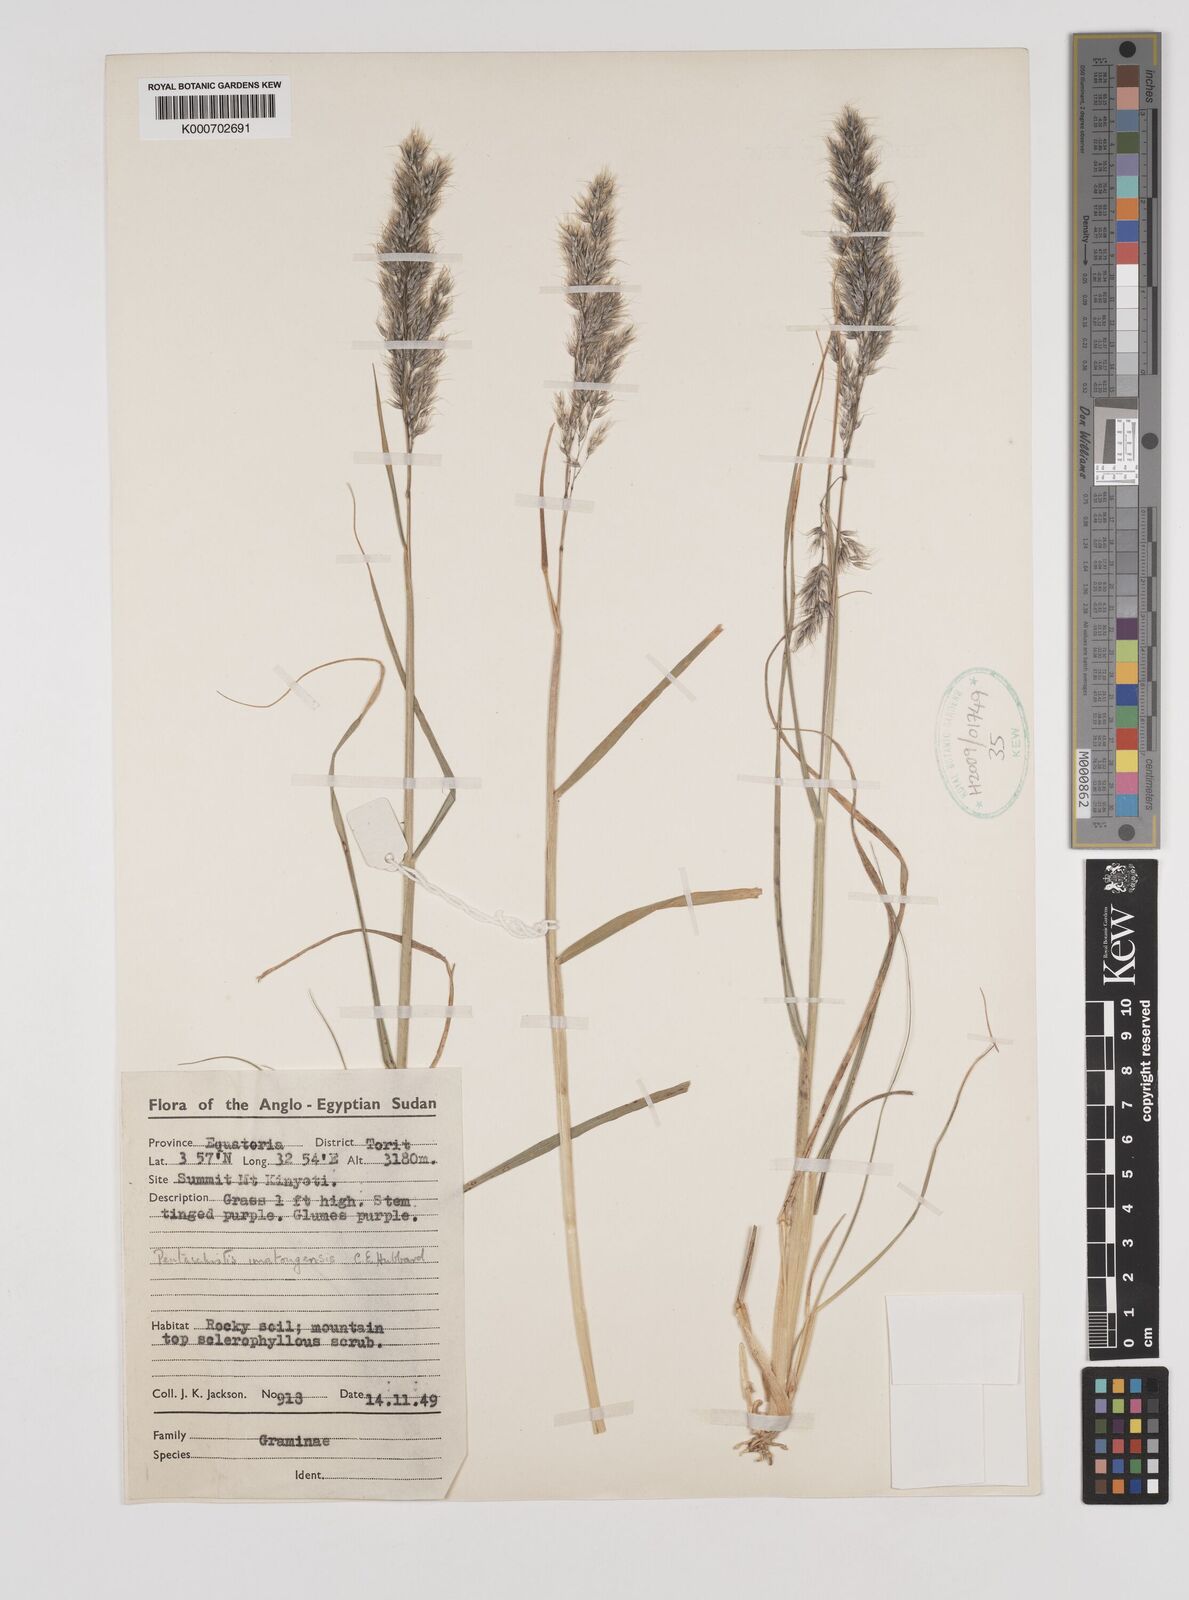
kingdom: Plantae
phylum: Tracheophyta
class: Liliopsida
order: Poales
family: Poaceae
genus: Pentameris
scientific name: Pentameris pictigluma
